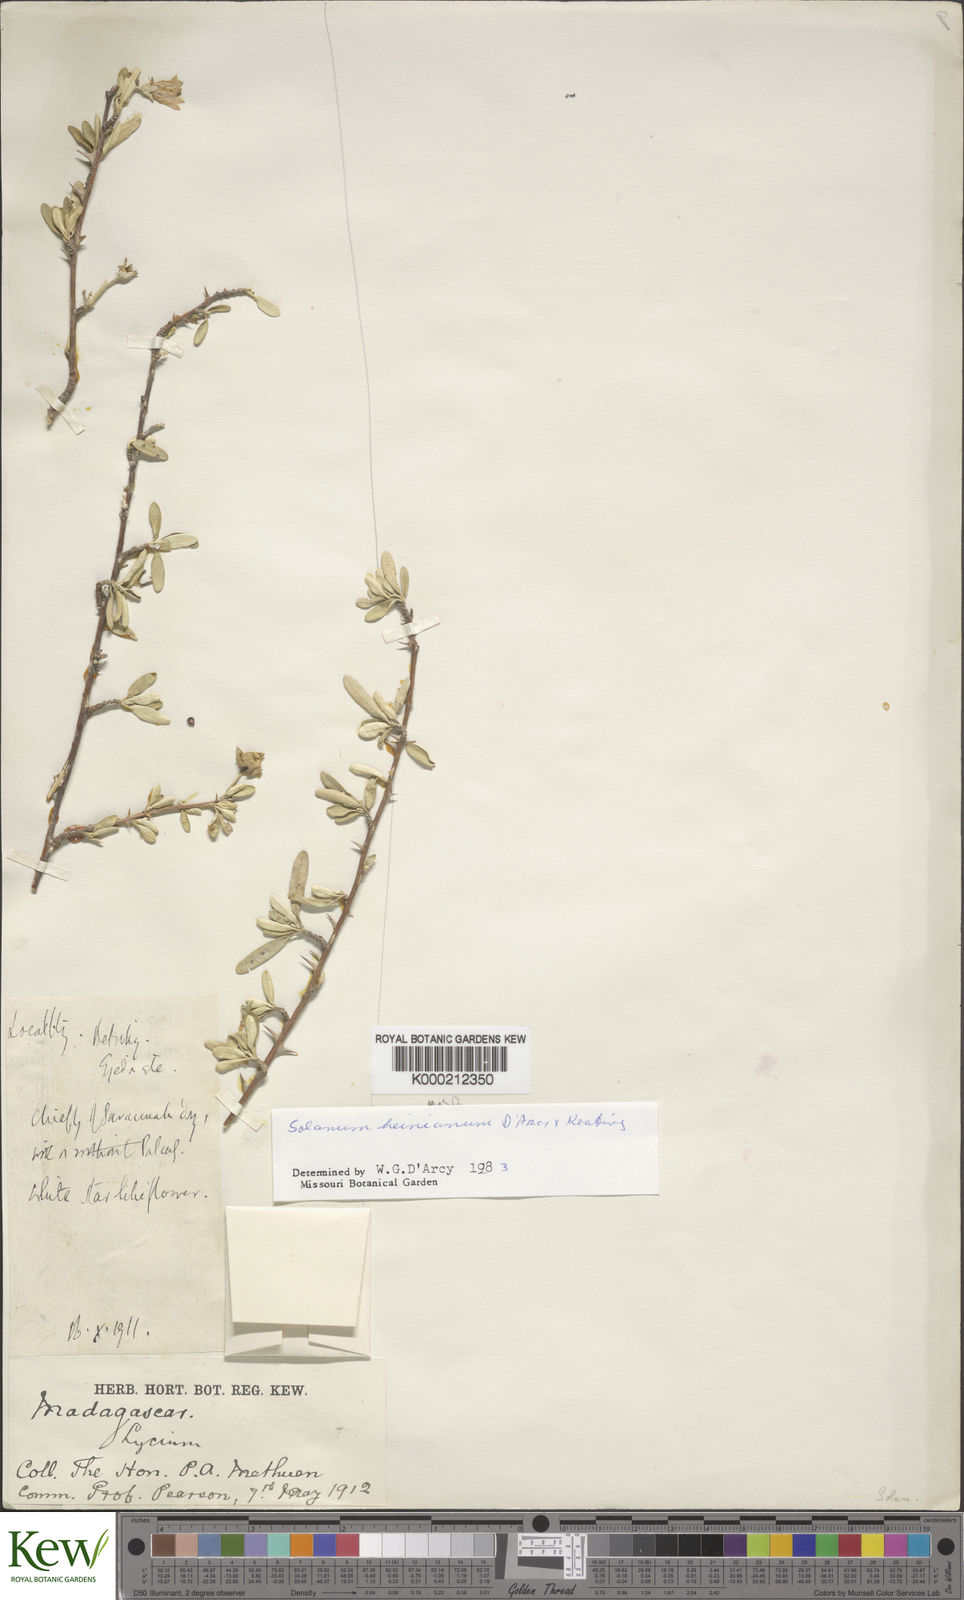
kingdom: Plantae
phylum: Tracheophyta
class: Magnoliopsida
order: Solanales
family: Solanaceae
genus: Solanum
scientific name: Solanum heinianum
